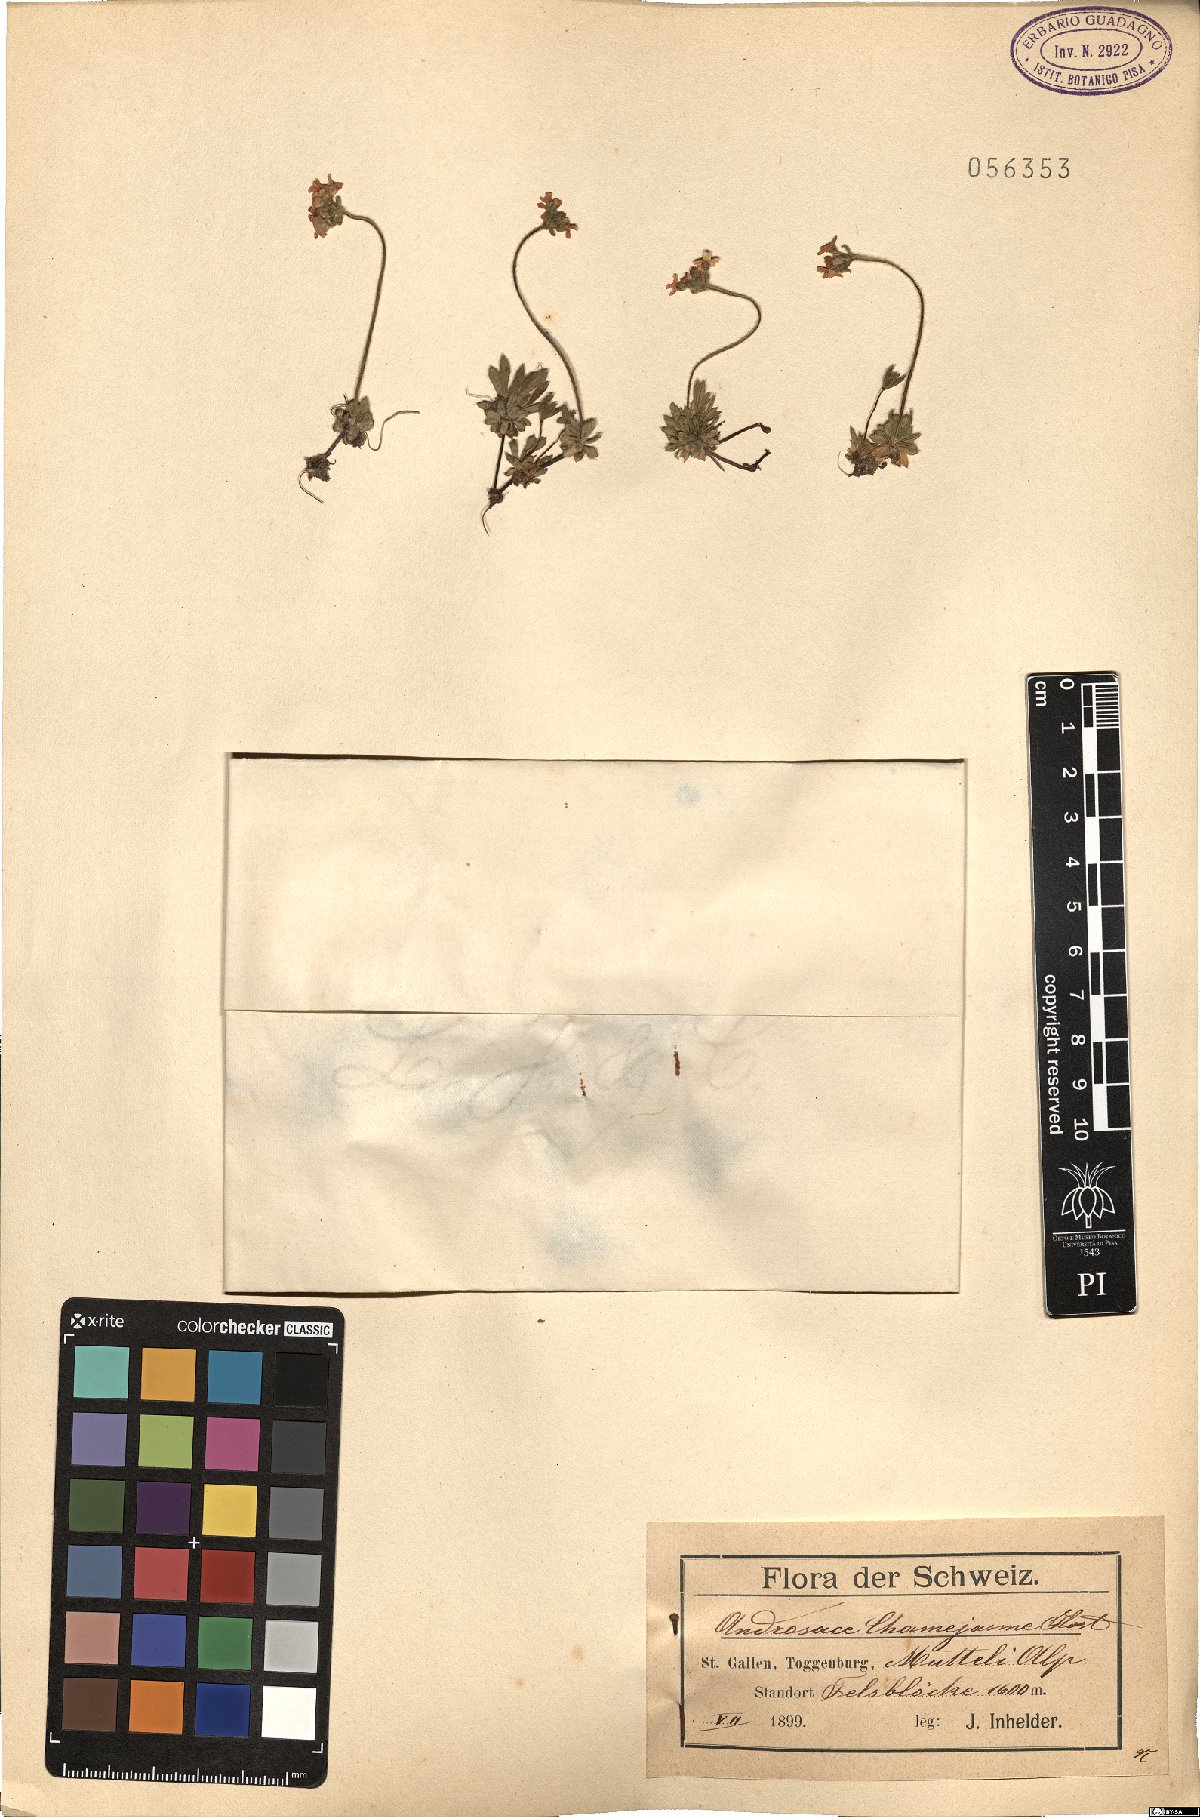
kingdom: Plantae
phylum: Tracheophyta
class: Magnoliopsida
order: Ericales
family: Primulaceae
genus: Androsace
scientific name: Androsace chamaejasme
